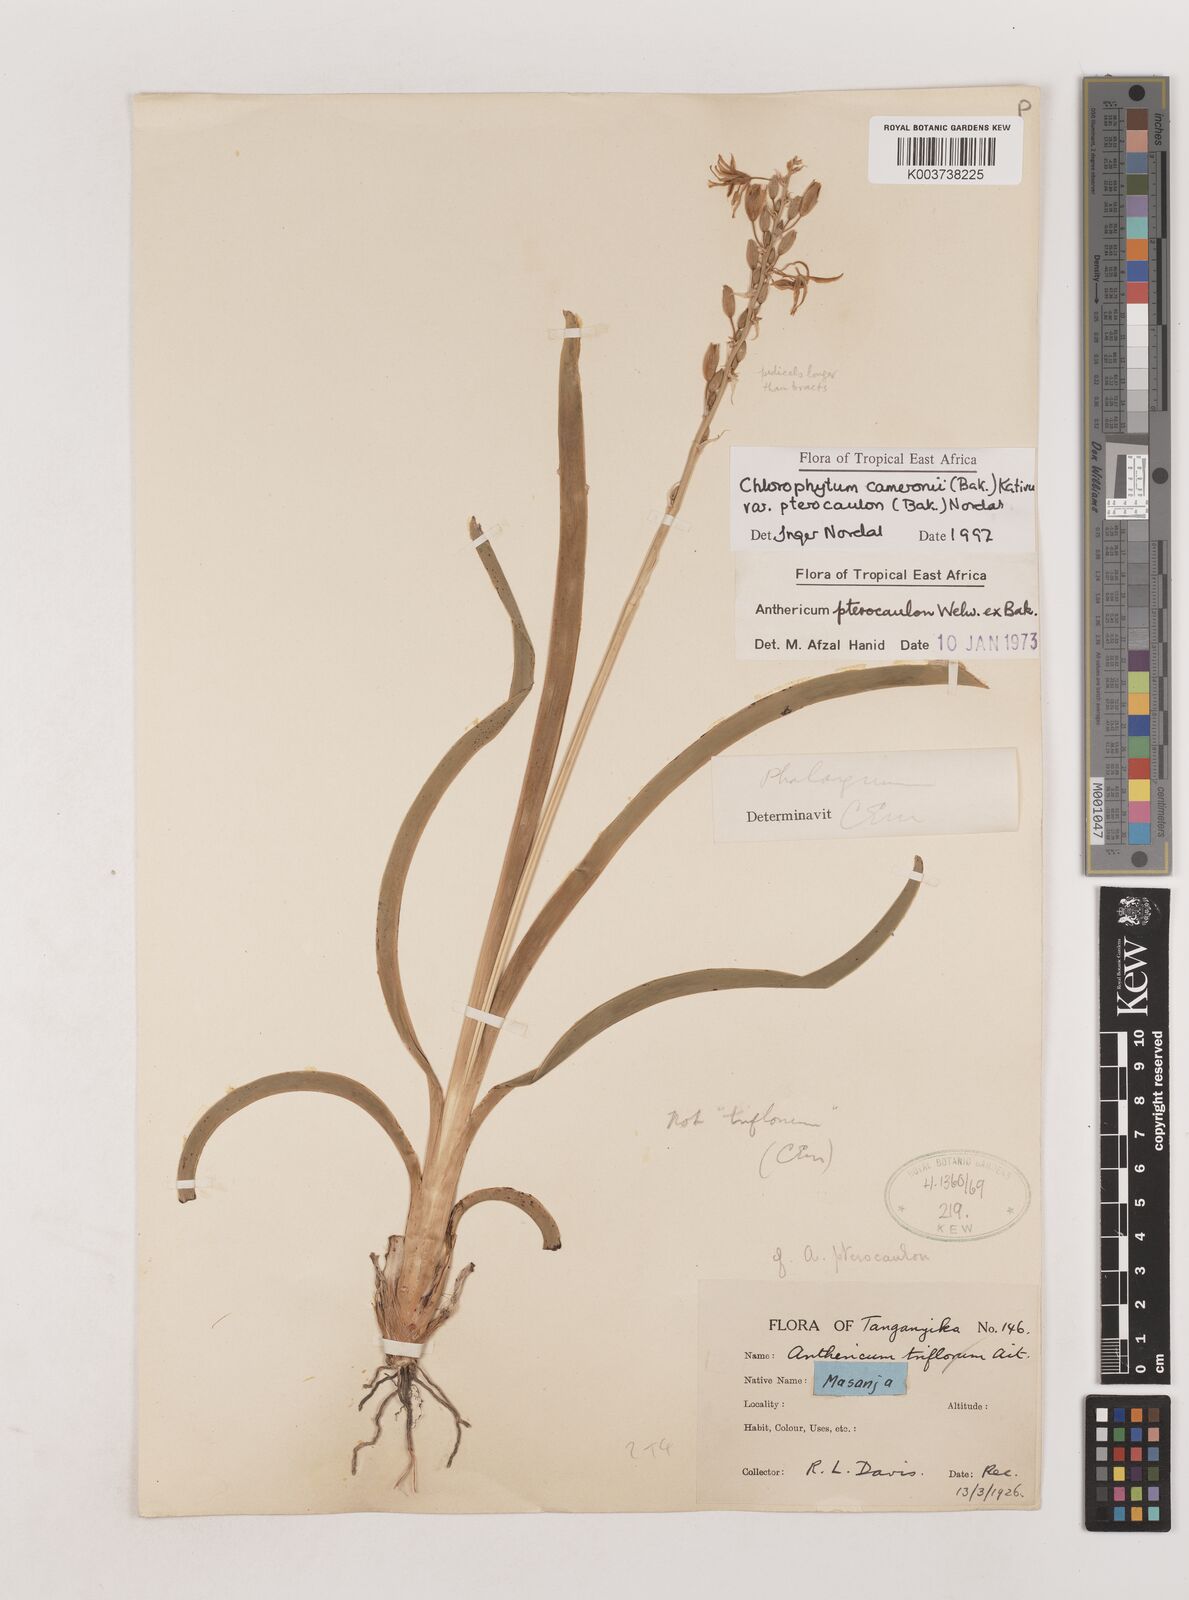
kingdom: Plantae
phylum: Tracheophyta
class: Liliopsida
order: Asparagales
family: Asparagaceae
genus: Chlorophytum
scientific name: Chlorophytum cameronii
